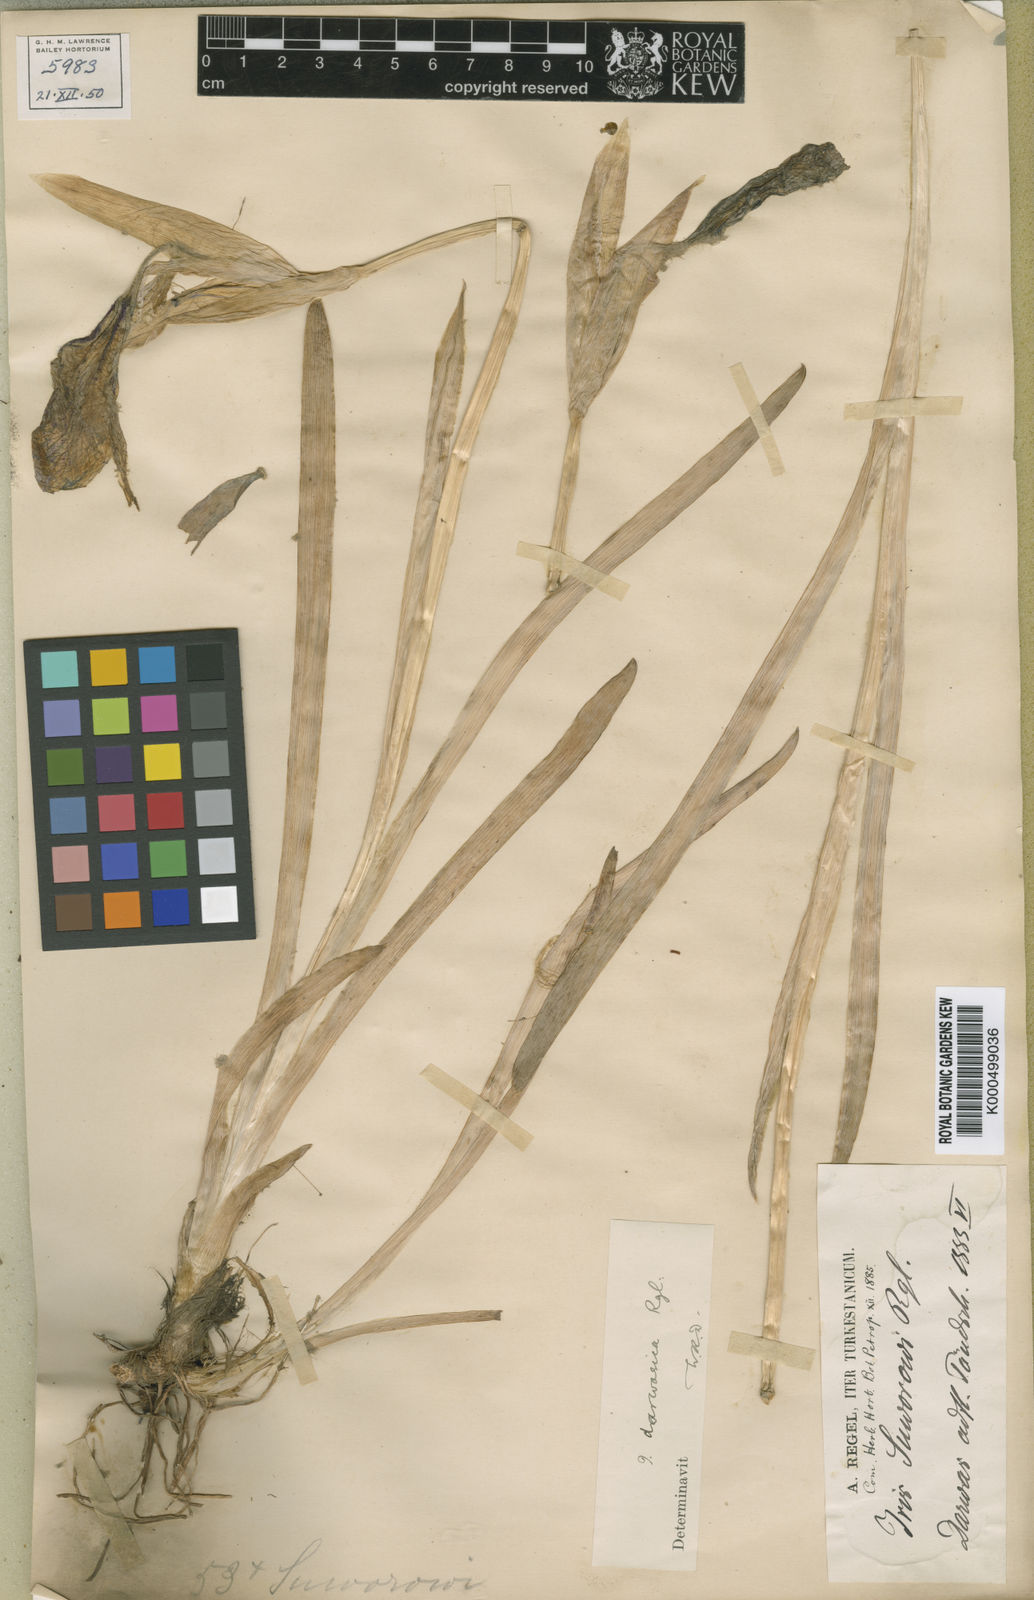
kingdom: Plantae
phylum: Tracheophyta
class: Liliopsida
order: Asparagales
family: Iridaceae
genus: Iris
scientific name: Iris darwasica
